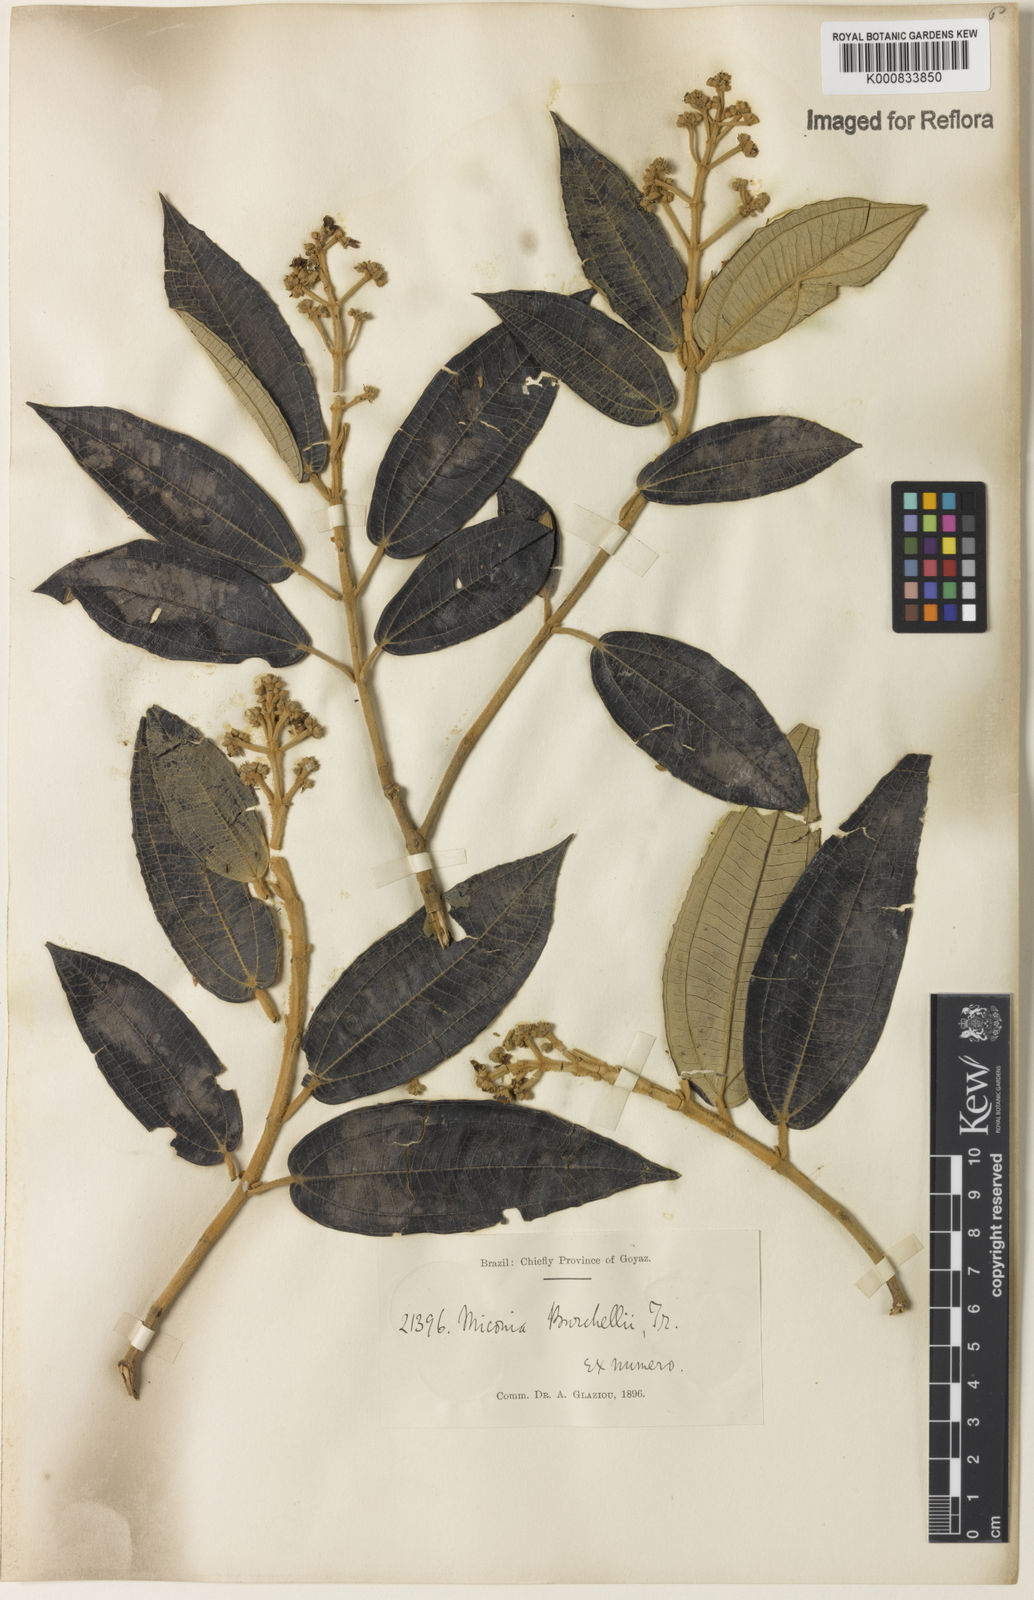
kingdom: Plantae
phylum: Tracheophyta
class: Magnoliopsida
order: Myrtales
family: Melastomataceae
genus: Miconia
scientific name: Miconia burchellii
